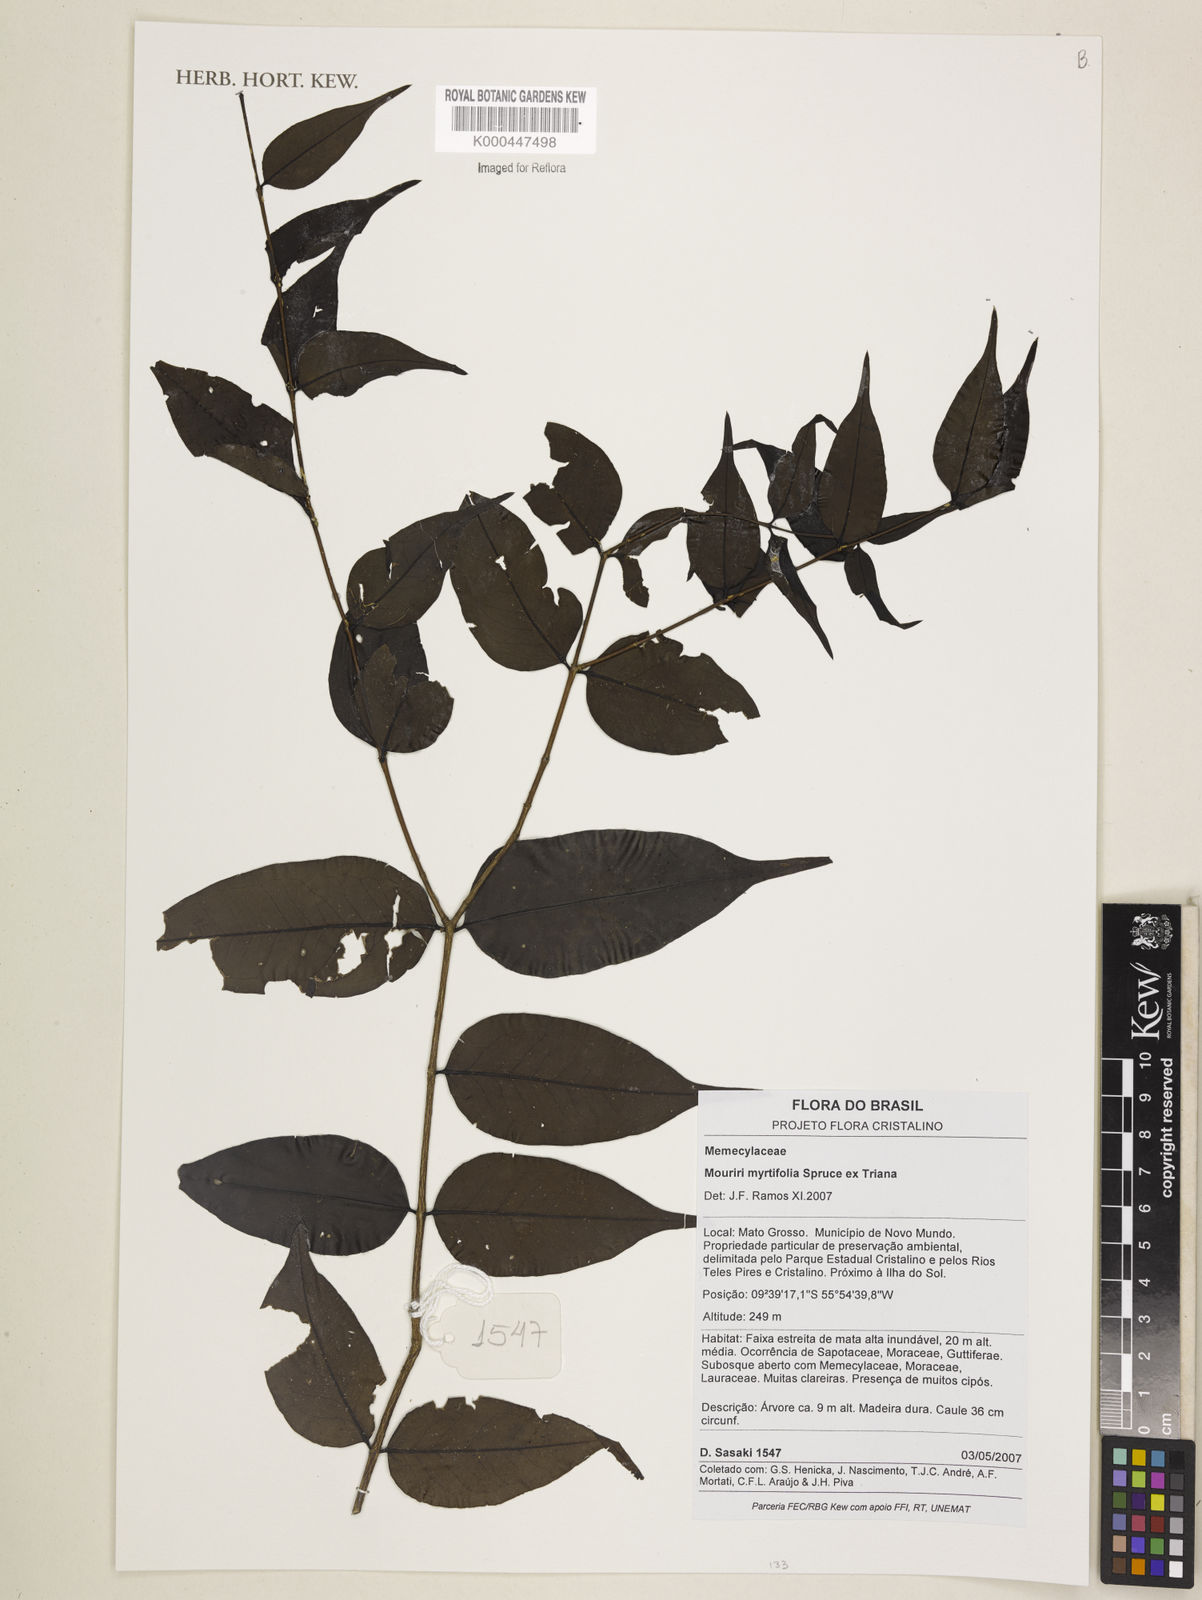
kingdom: Plantae
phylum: Tracheophyta
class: Magnoliopsida
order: Myrtales
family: Melastomataceae
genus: Mouriri
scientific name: Mouriri myrtifolia
